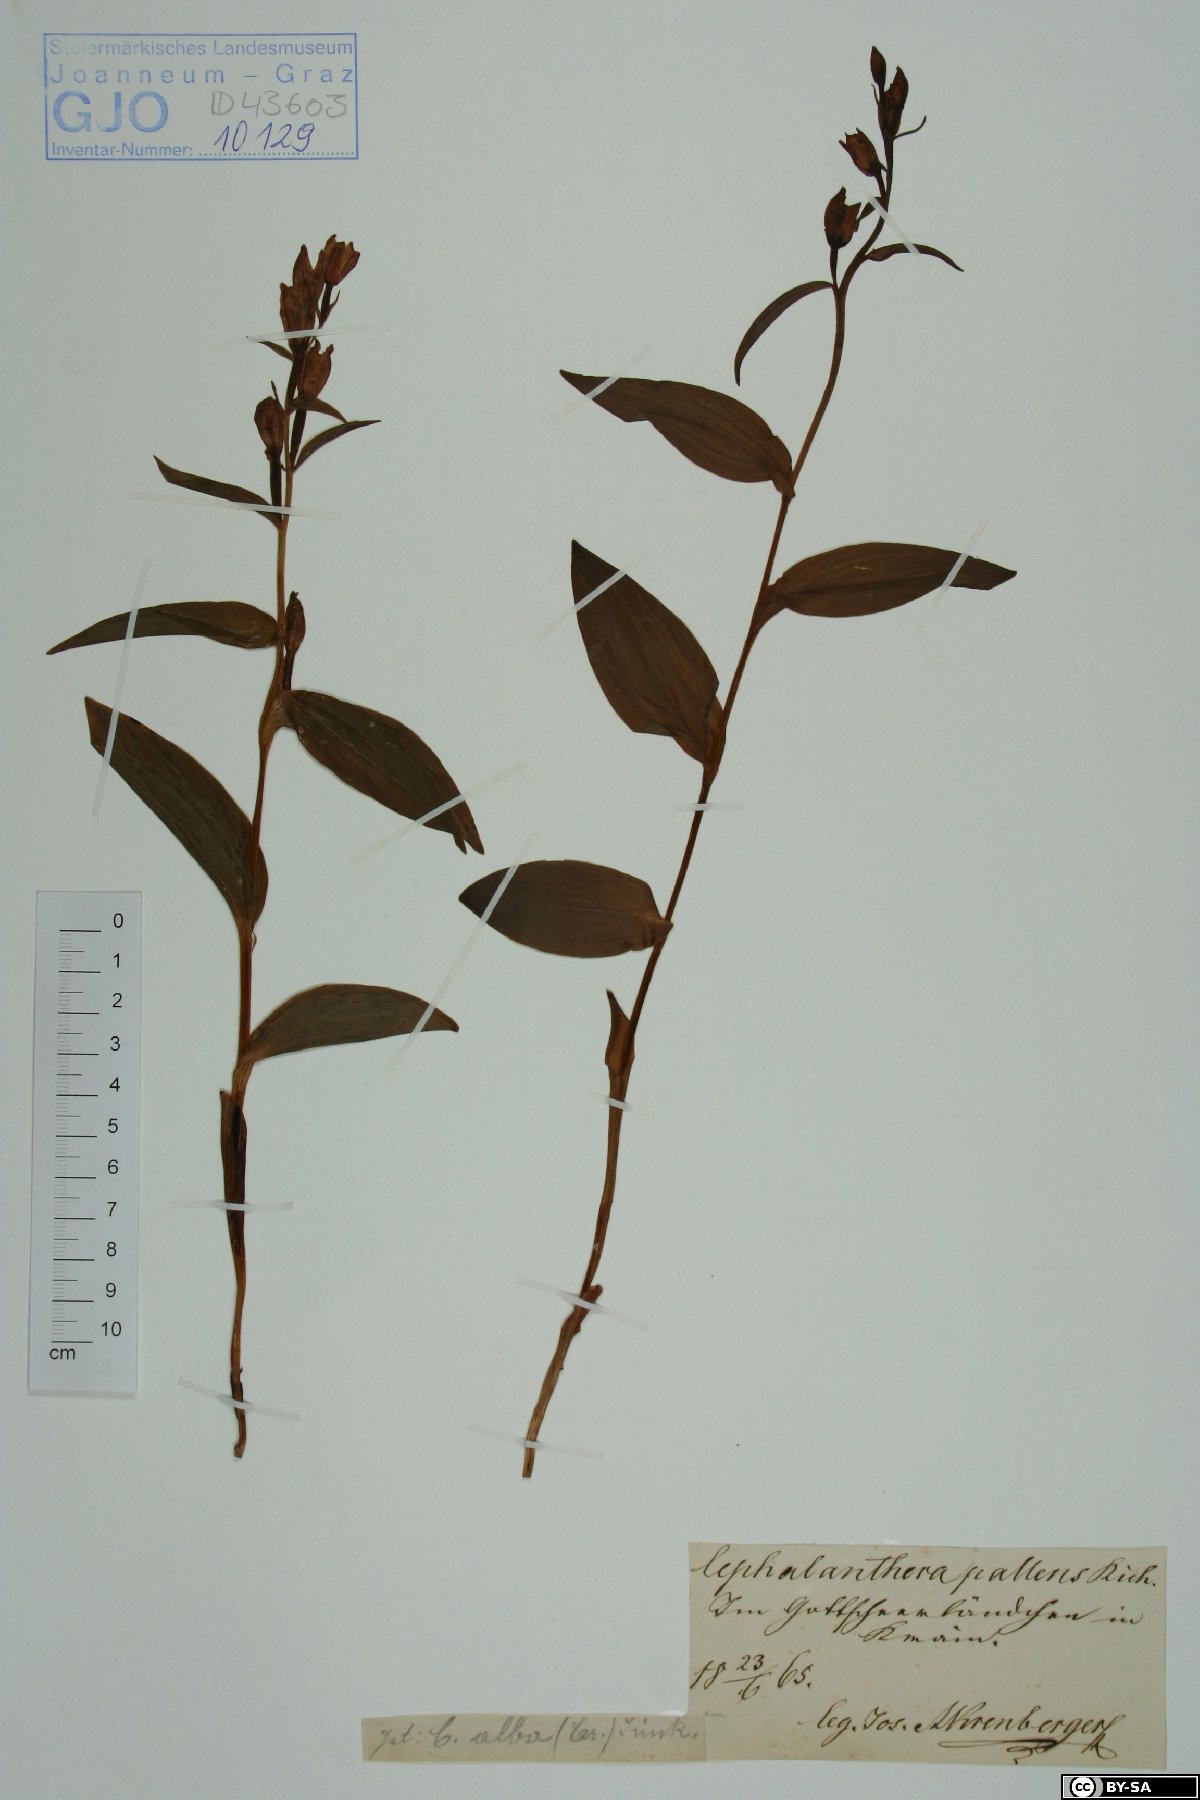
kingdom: Plantae
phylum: Tracheophyta
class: Liliopsida
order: Asparagales
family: Orchidaceae
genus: Cephalanthera
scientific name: Cephalanthera longifolia
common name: Narrow-leaved helleborine
